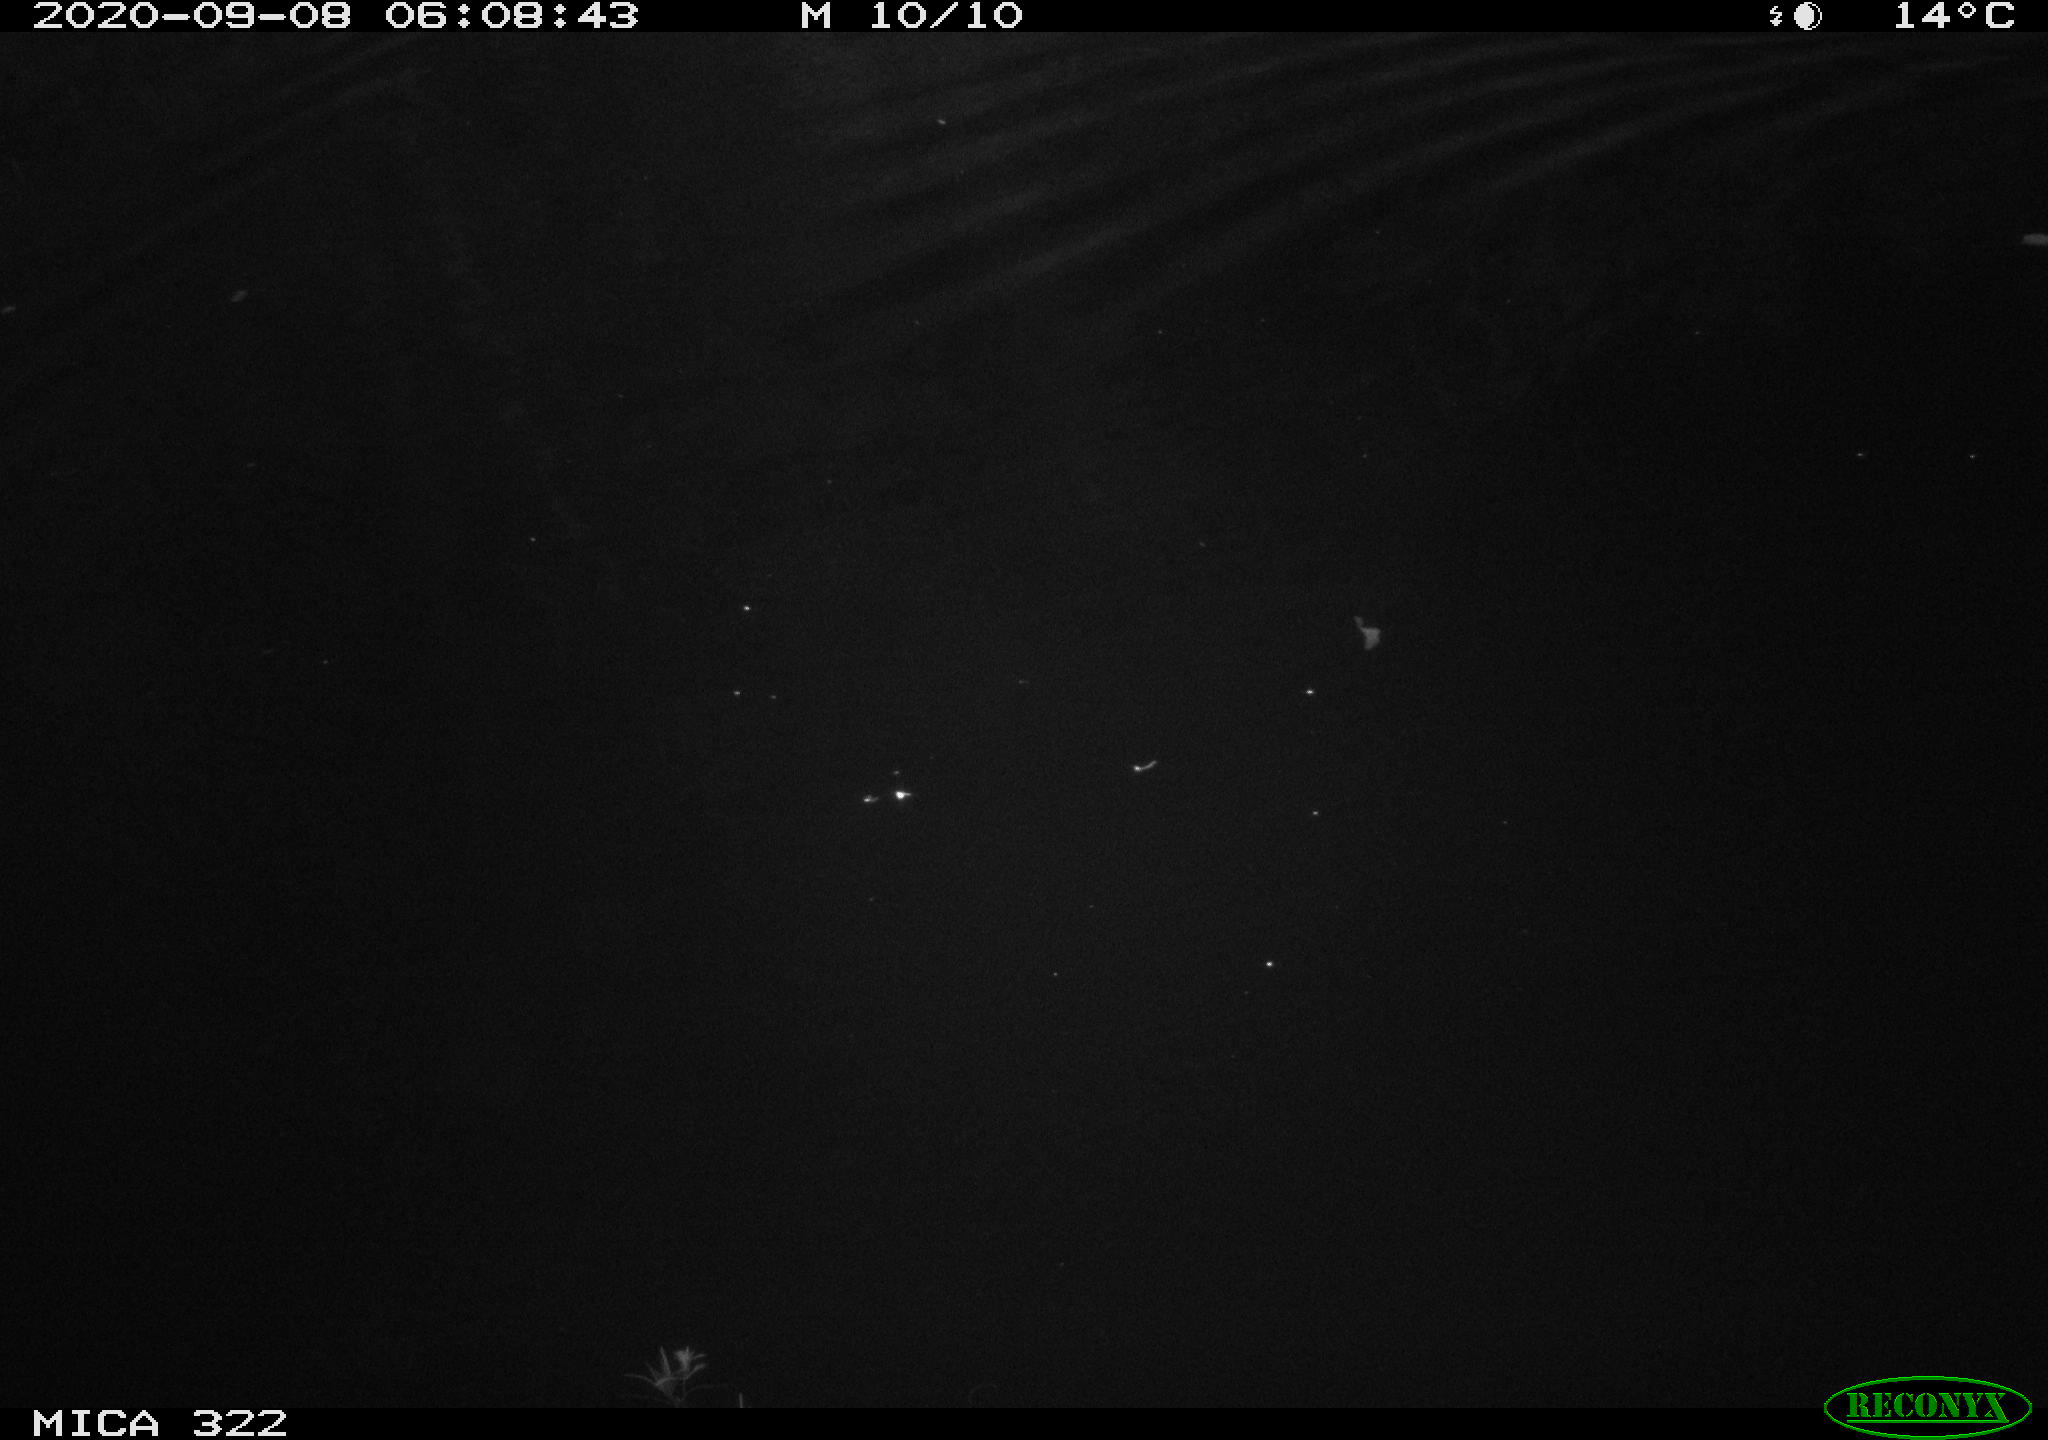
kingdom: Animalia
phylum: Chordata
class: Mammalia
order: Rodentia
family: Muridae
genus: Rattus
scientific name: Rattus norvegicus
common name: Brown rat
